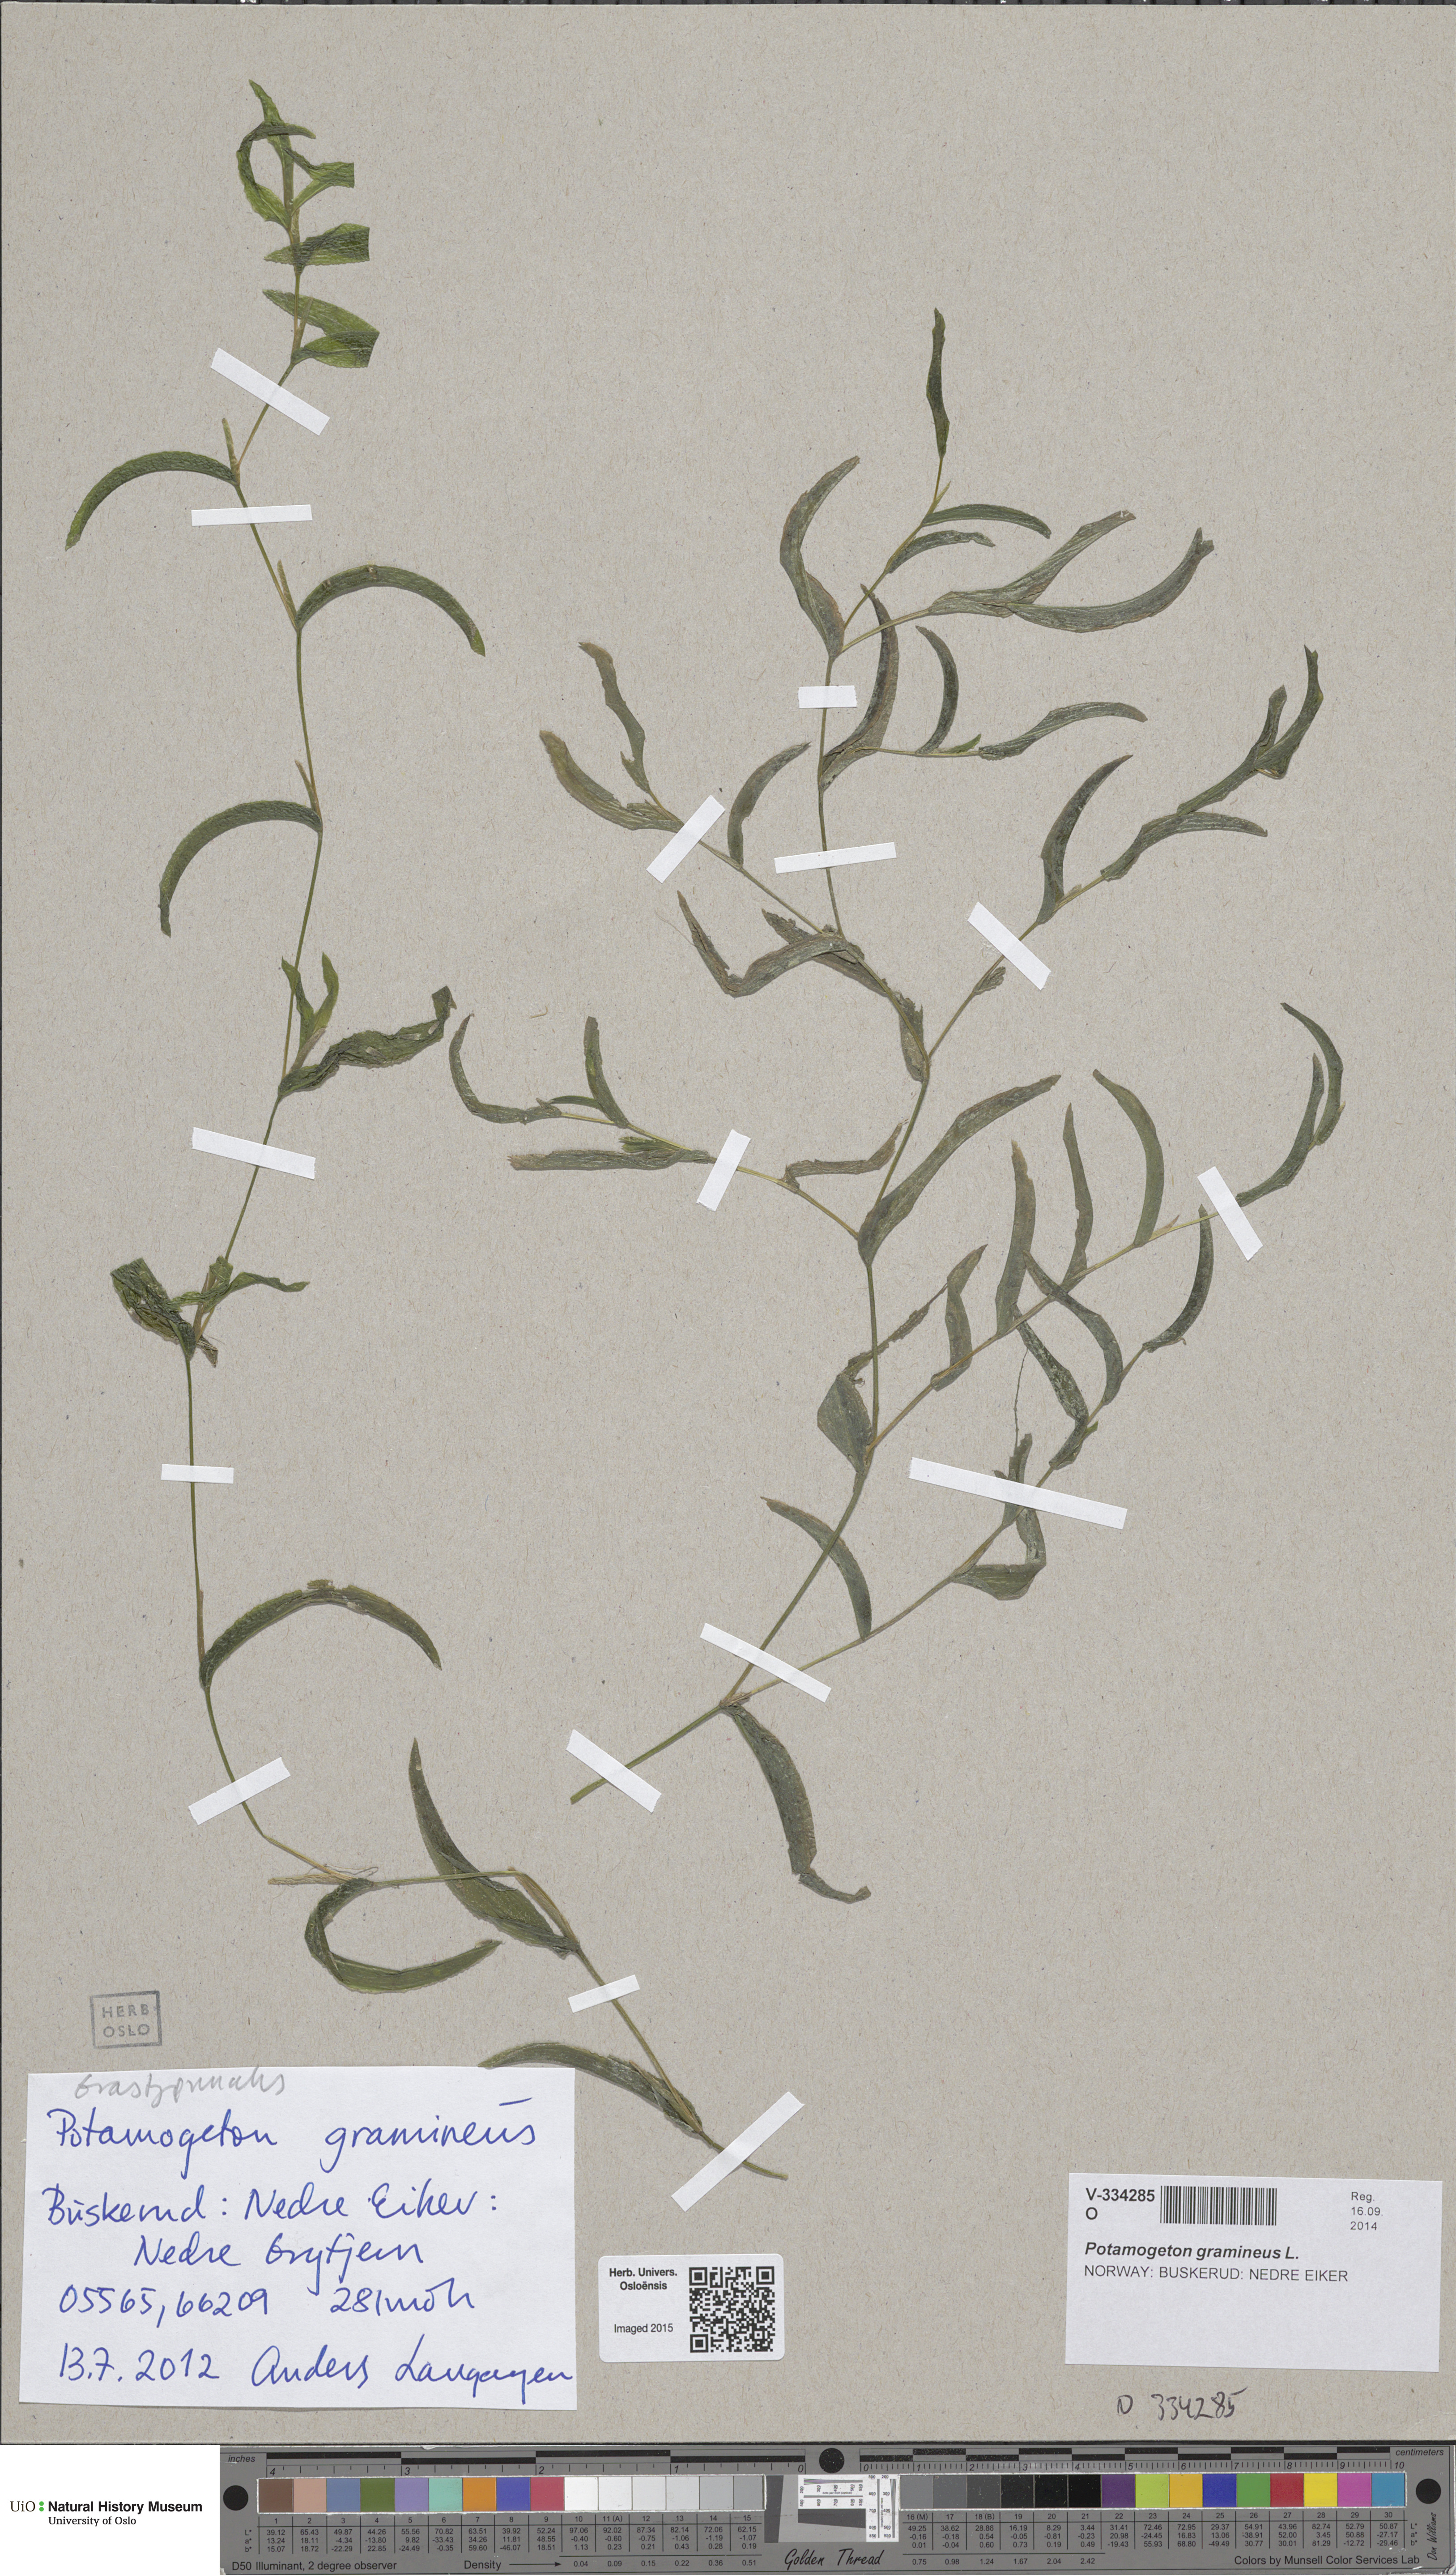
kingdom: Plantae
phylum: Tracheophyta
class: Liliopsida
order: Alismatales
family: Potamogetonaceae
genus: Potamogeton
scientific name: Potamogeton nitens
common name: Pondweed
